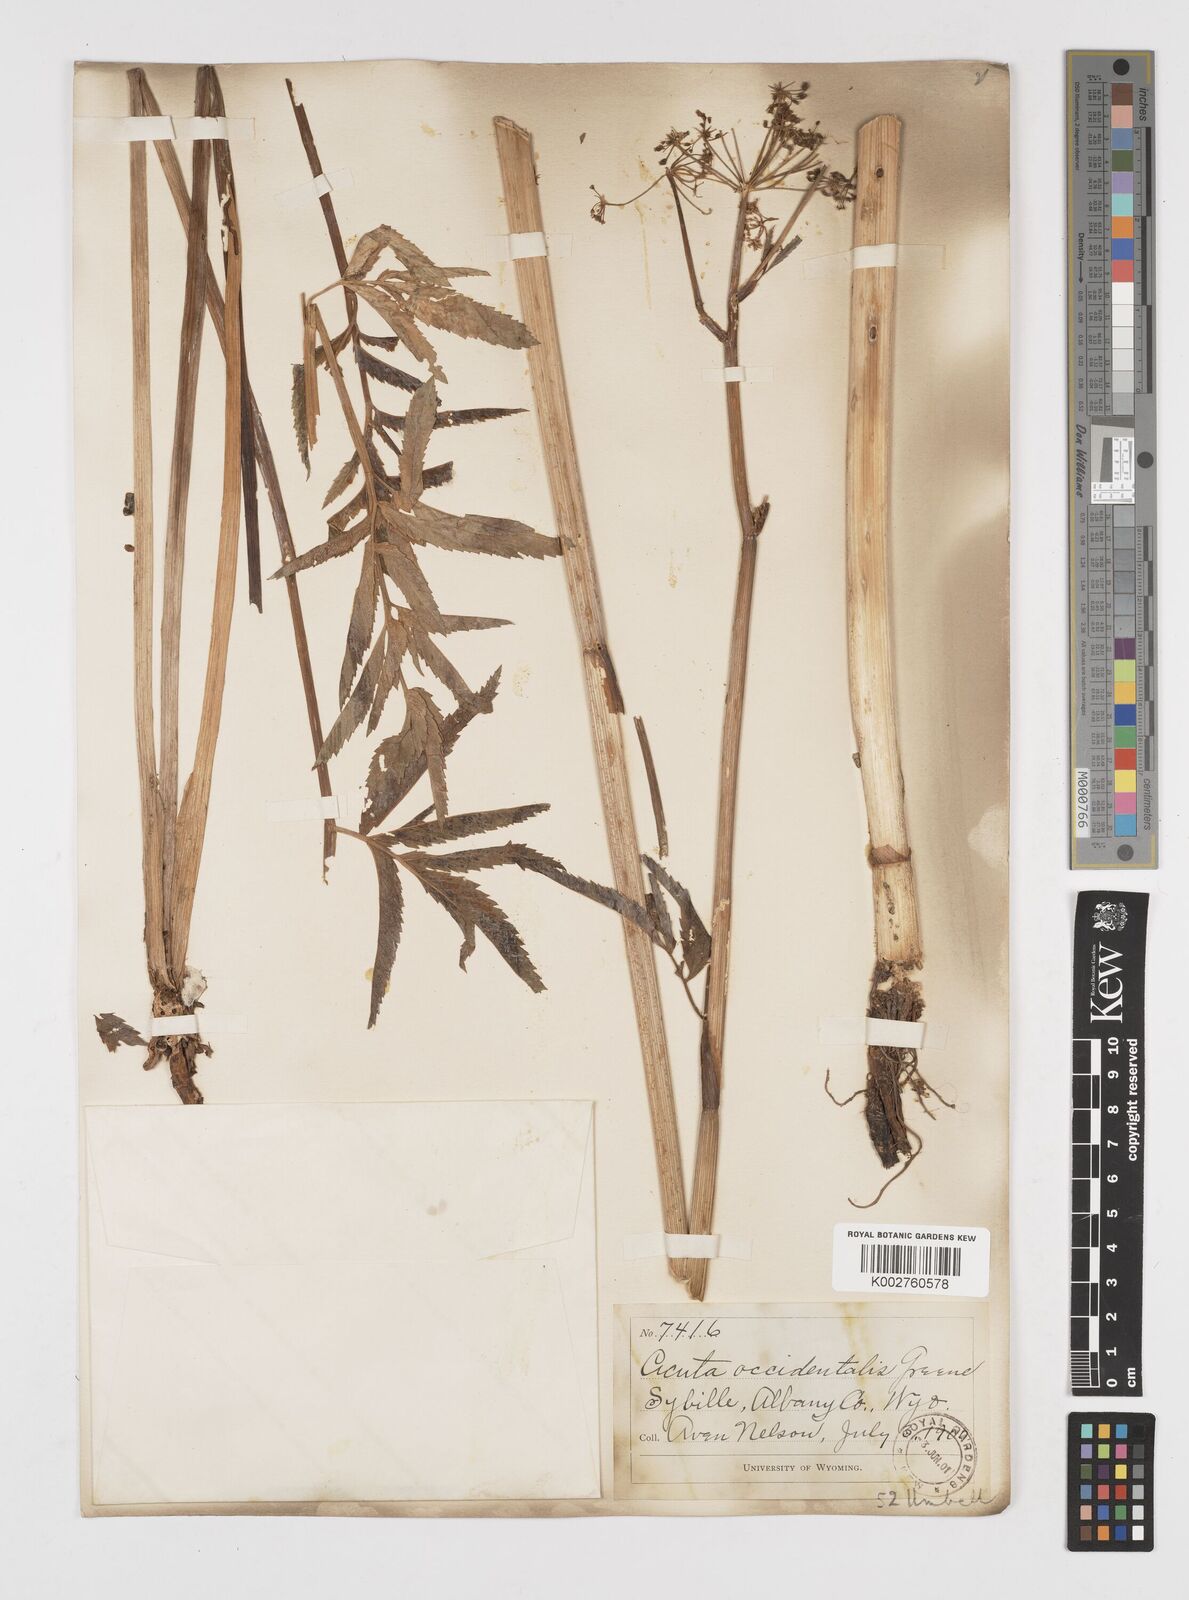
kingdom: Plantae
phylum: Tracheophyta
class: Magnoliopsida
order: Apiales
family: Apiaceae
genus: Cicuta
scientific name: Cicuta douglasii
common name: Western water-hemlock
